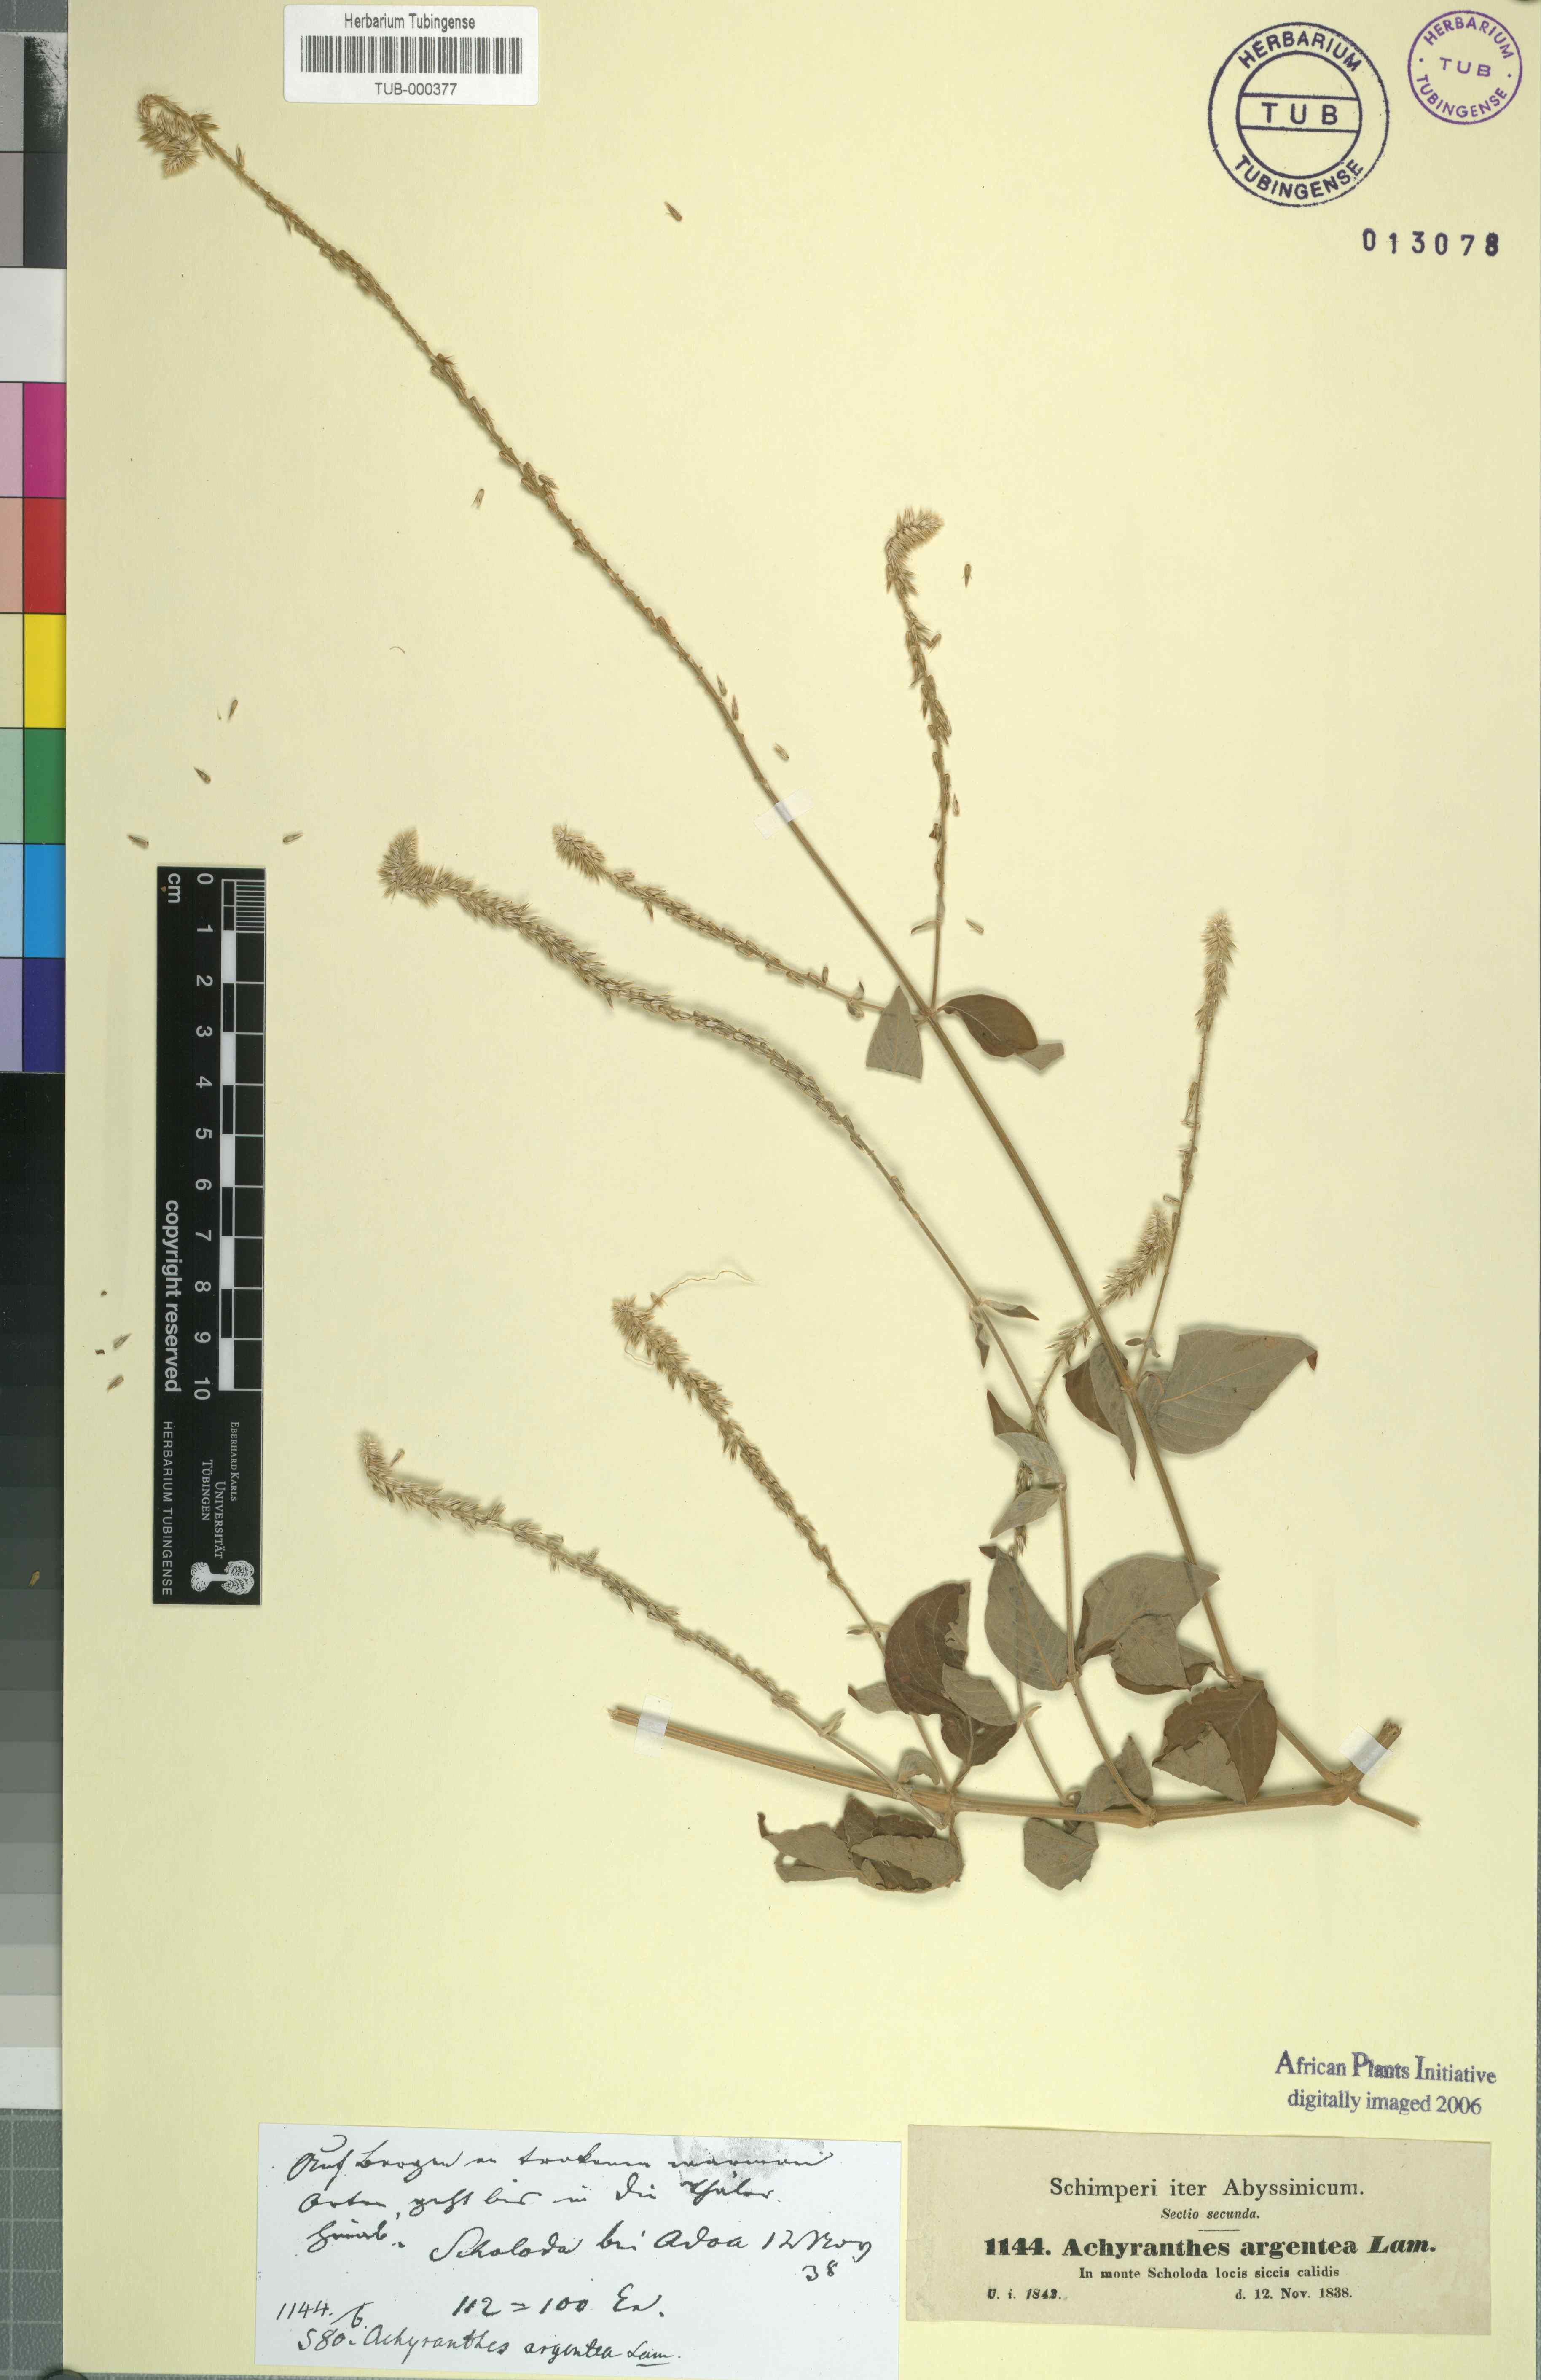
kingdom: Plantae
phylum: Tracheophyta
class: Magnoliopsida
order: Caryophyllales
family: Amaranthaceae
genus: Achyranthes
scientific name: Achyranthes aspera
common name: Devil's horsewhip
